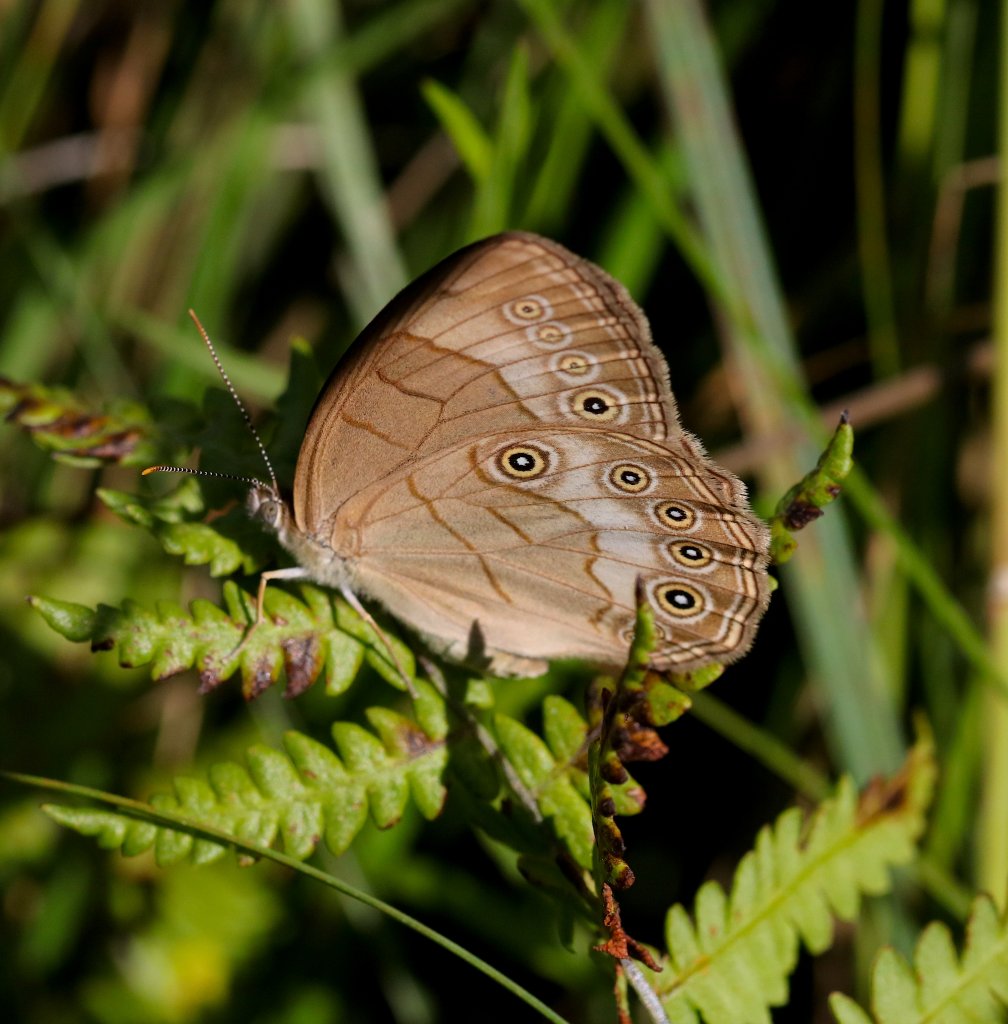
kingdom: Animalia
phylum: Arthropoda
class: Insecta
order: Lepidoptera
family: Nymphalidae
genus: Lethe
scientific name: Lethe eurydice
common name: Appalachian Eyed Brown
